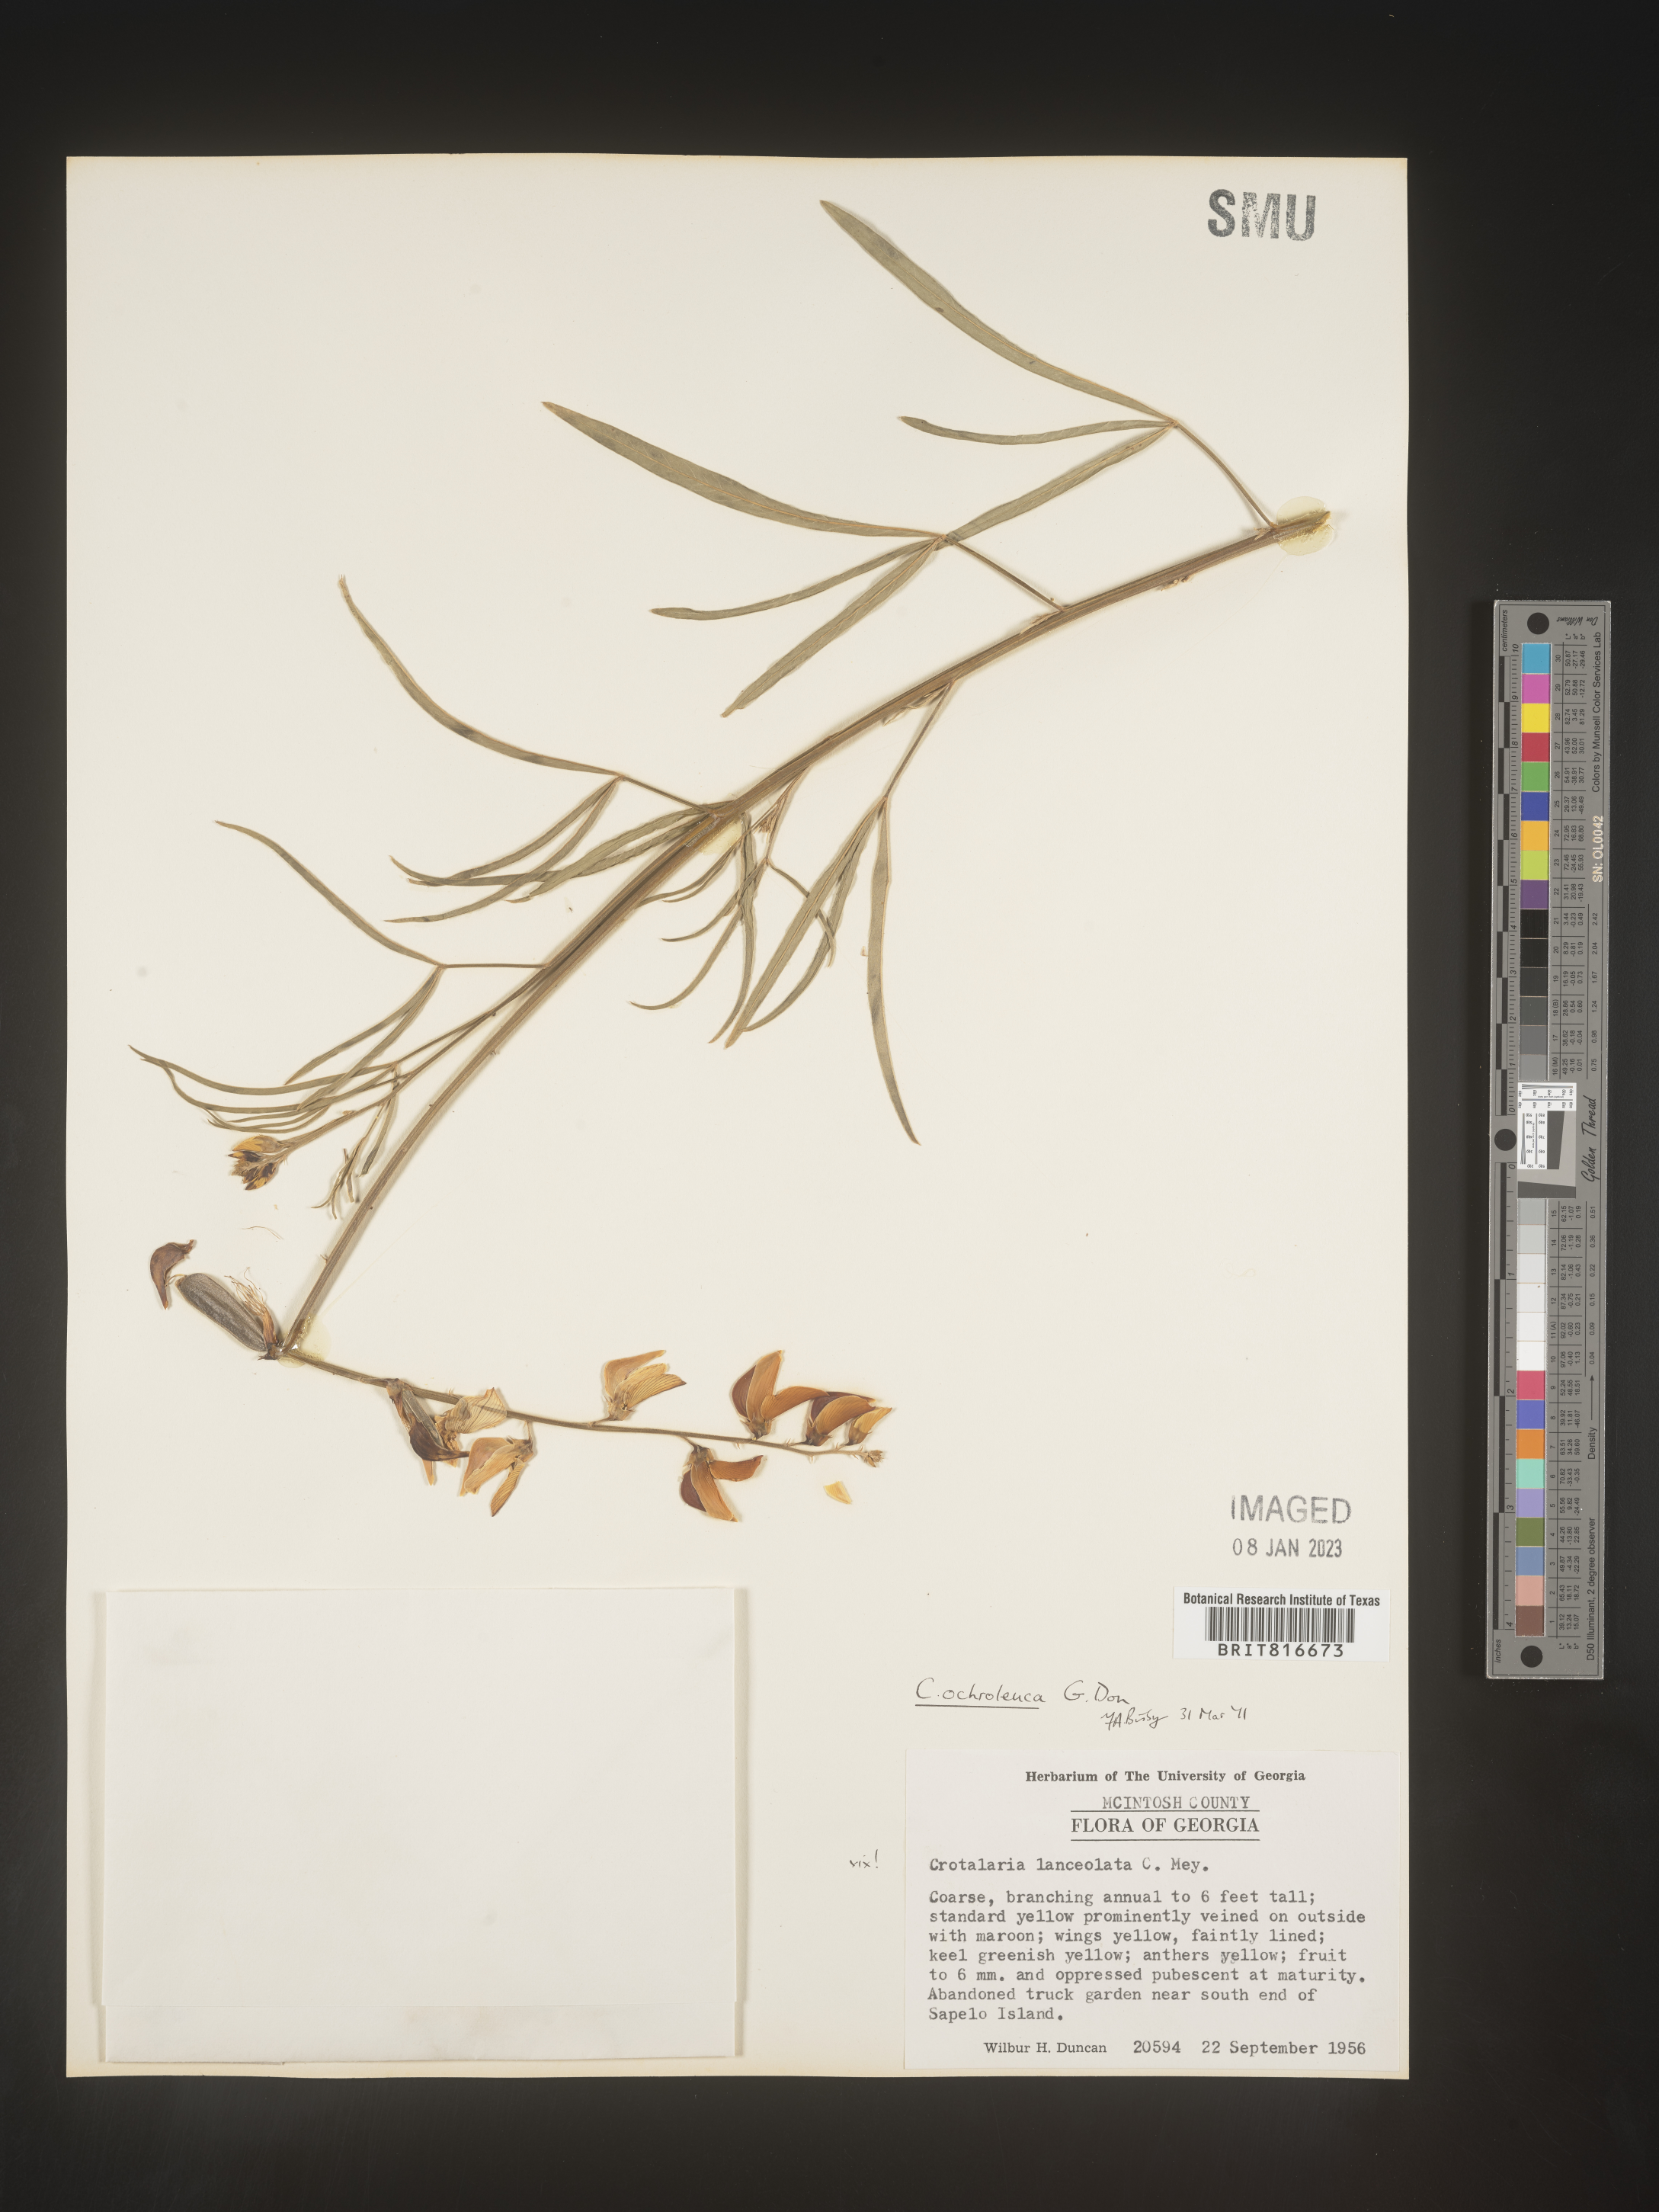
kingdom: Plantae
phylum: Tracheophyta
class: Magnoliopsida
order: Fabales
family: Fabaceae
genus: Crotalaria
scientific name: Crotalaria ochroleuca
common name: Slender leaf rattlebox
